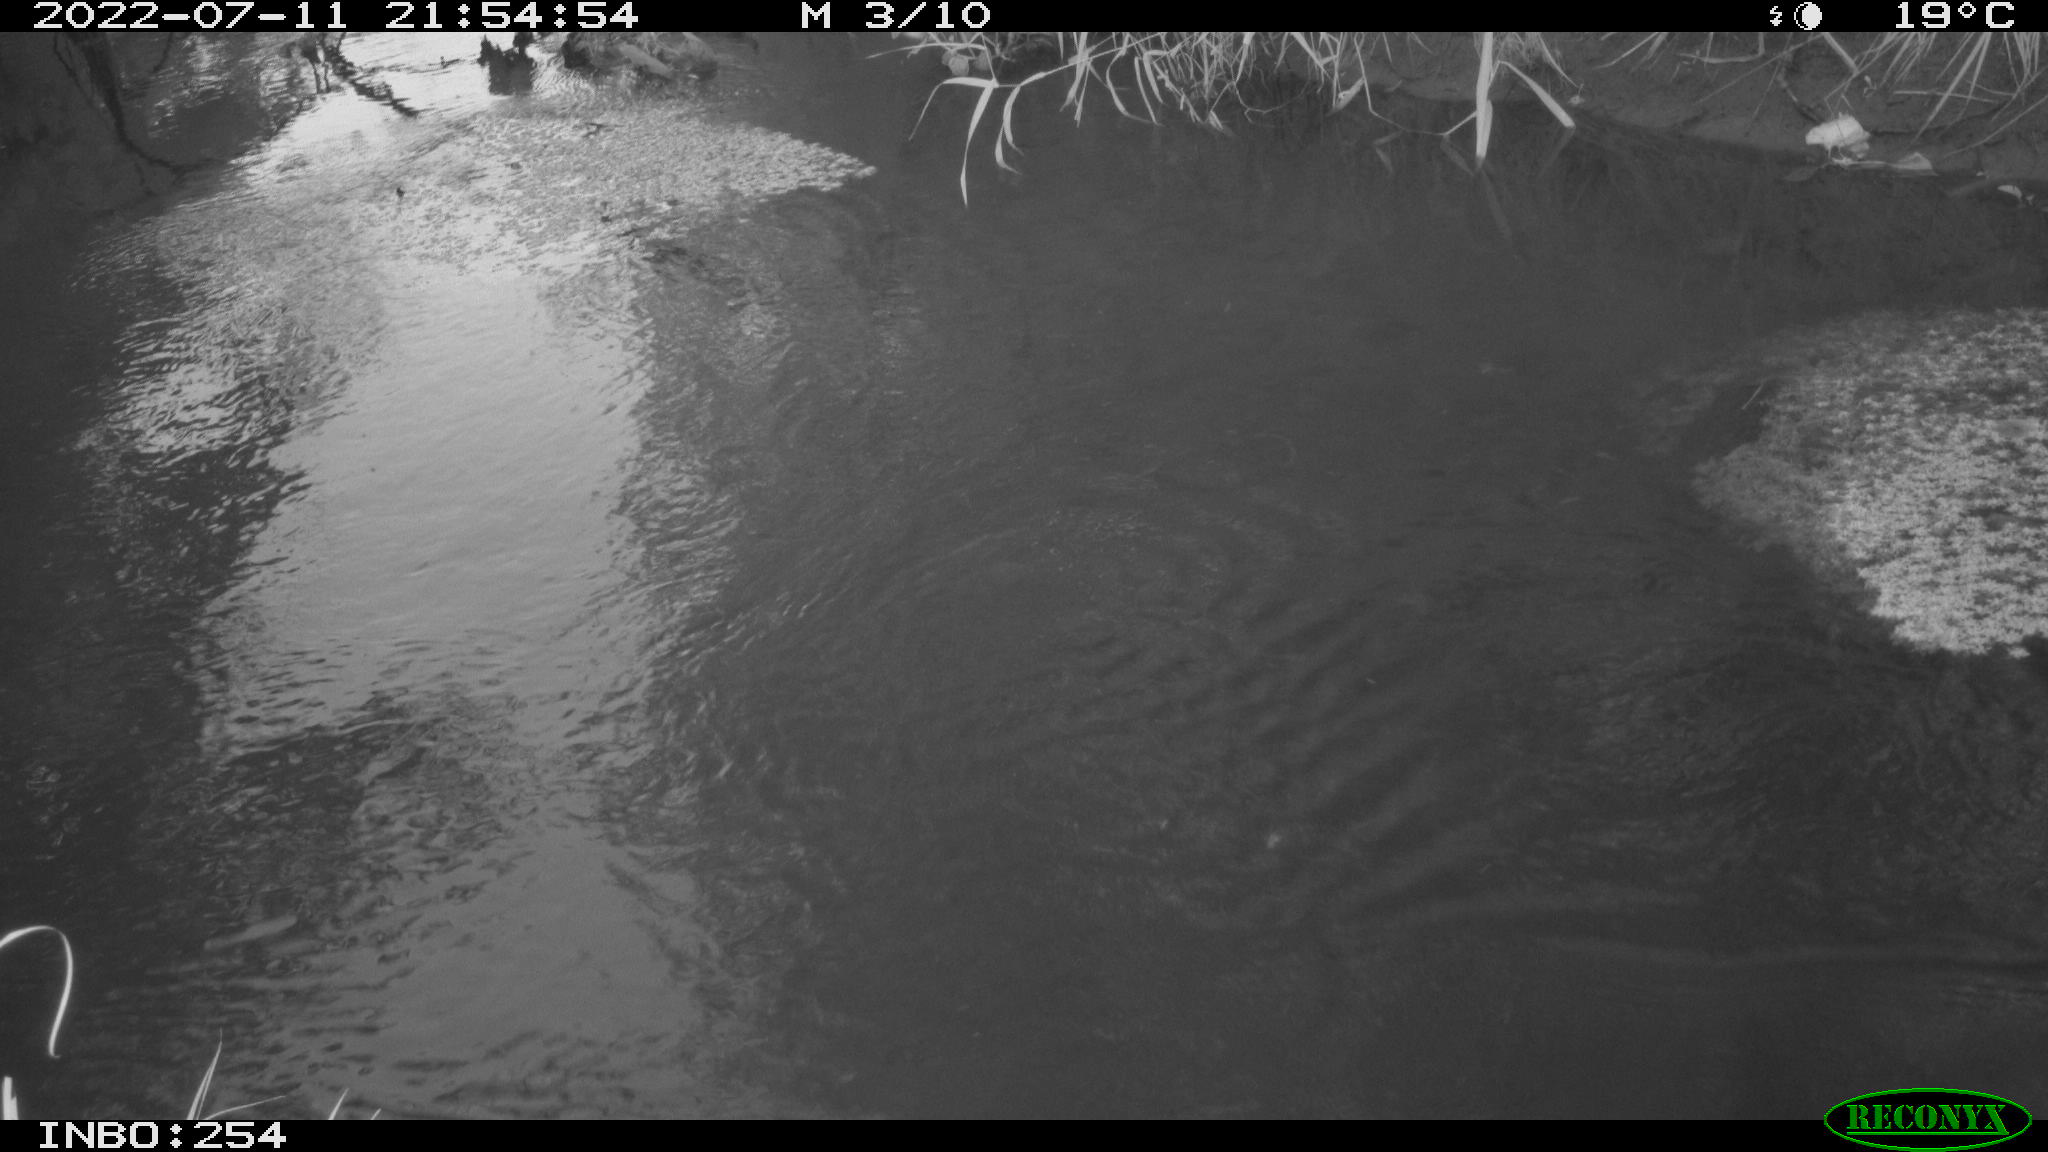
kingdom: Animalia
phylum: Chordata
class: Aves
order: Anseriformes
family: Anatidae
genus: Anas
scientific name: Anas platyrhynchos
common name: Mallard
